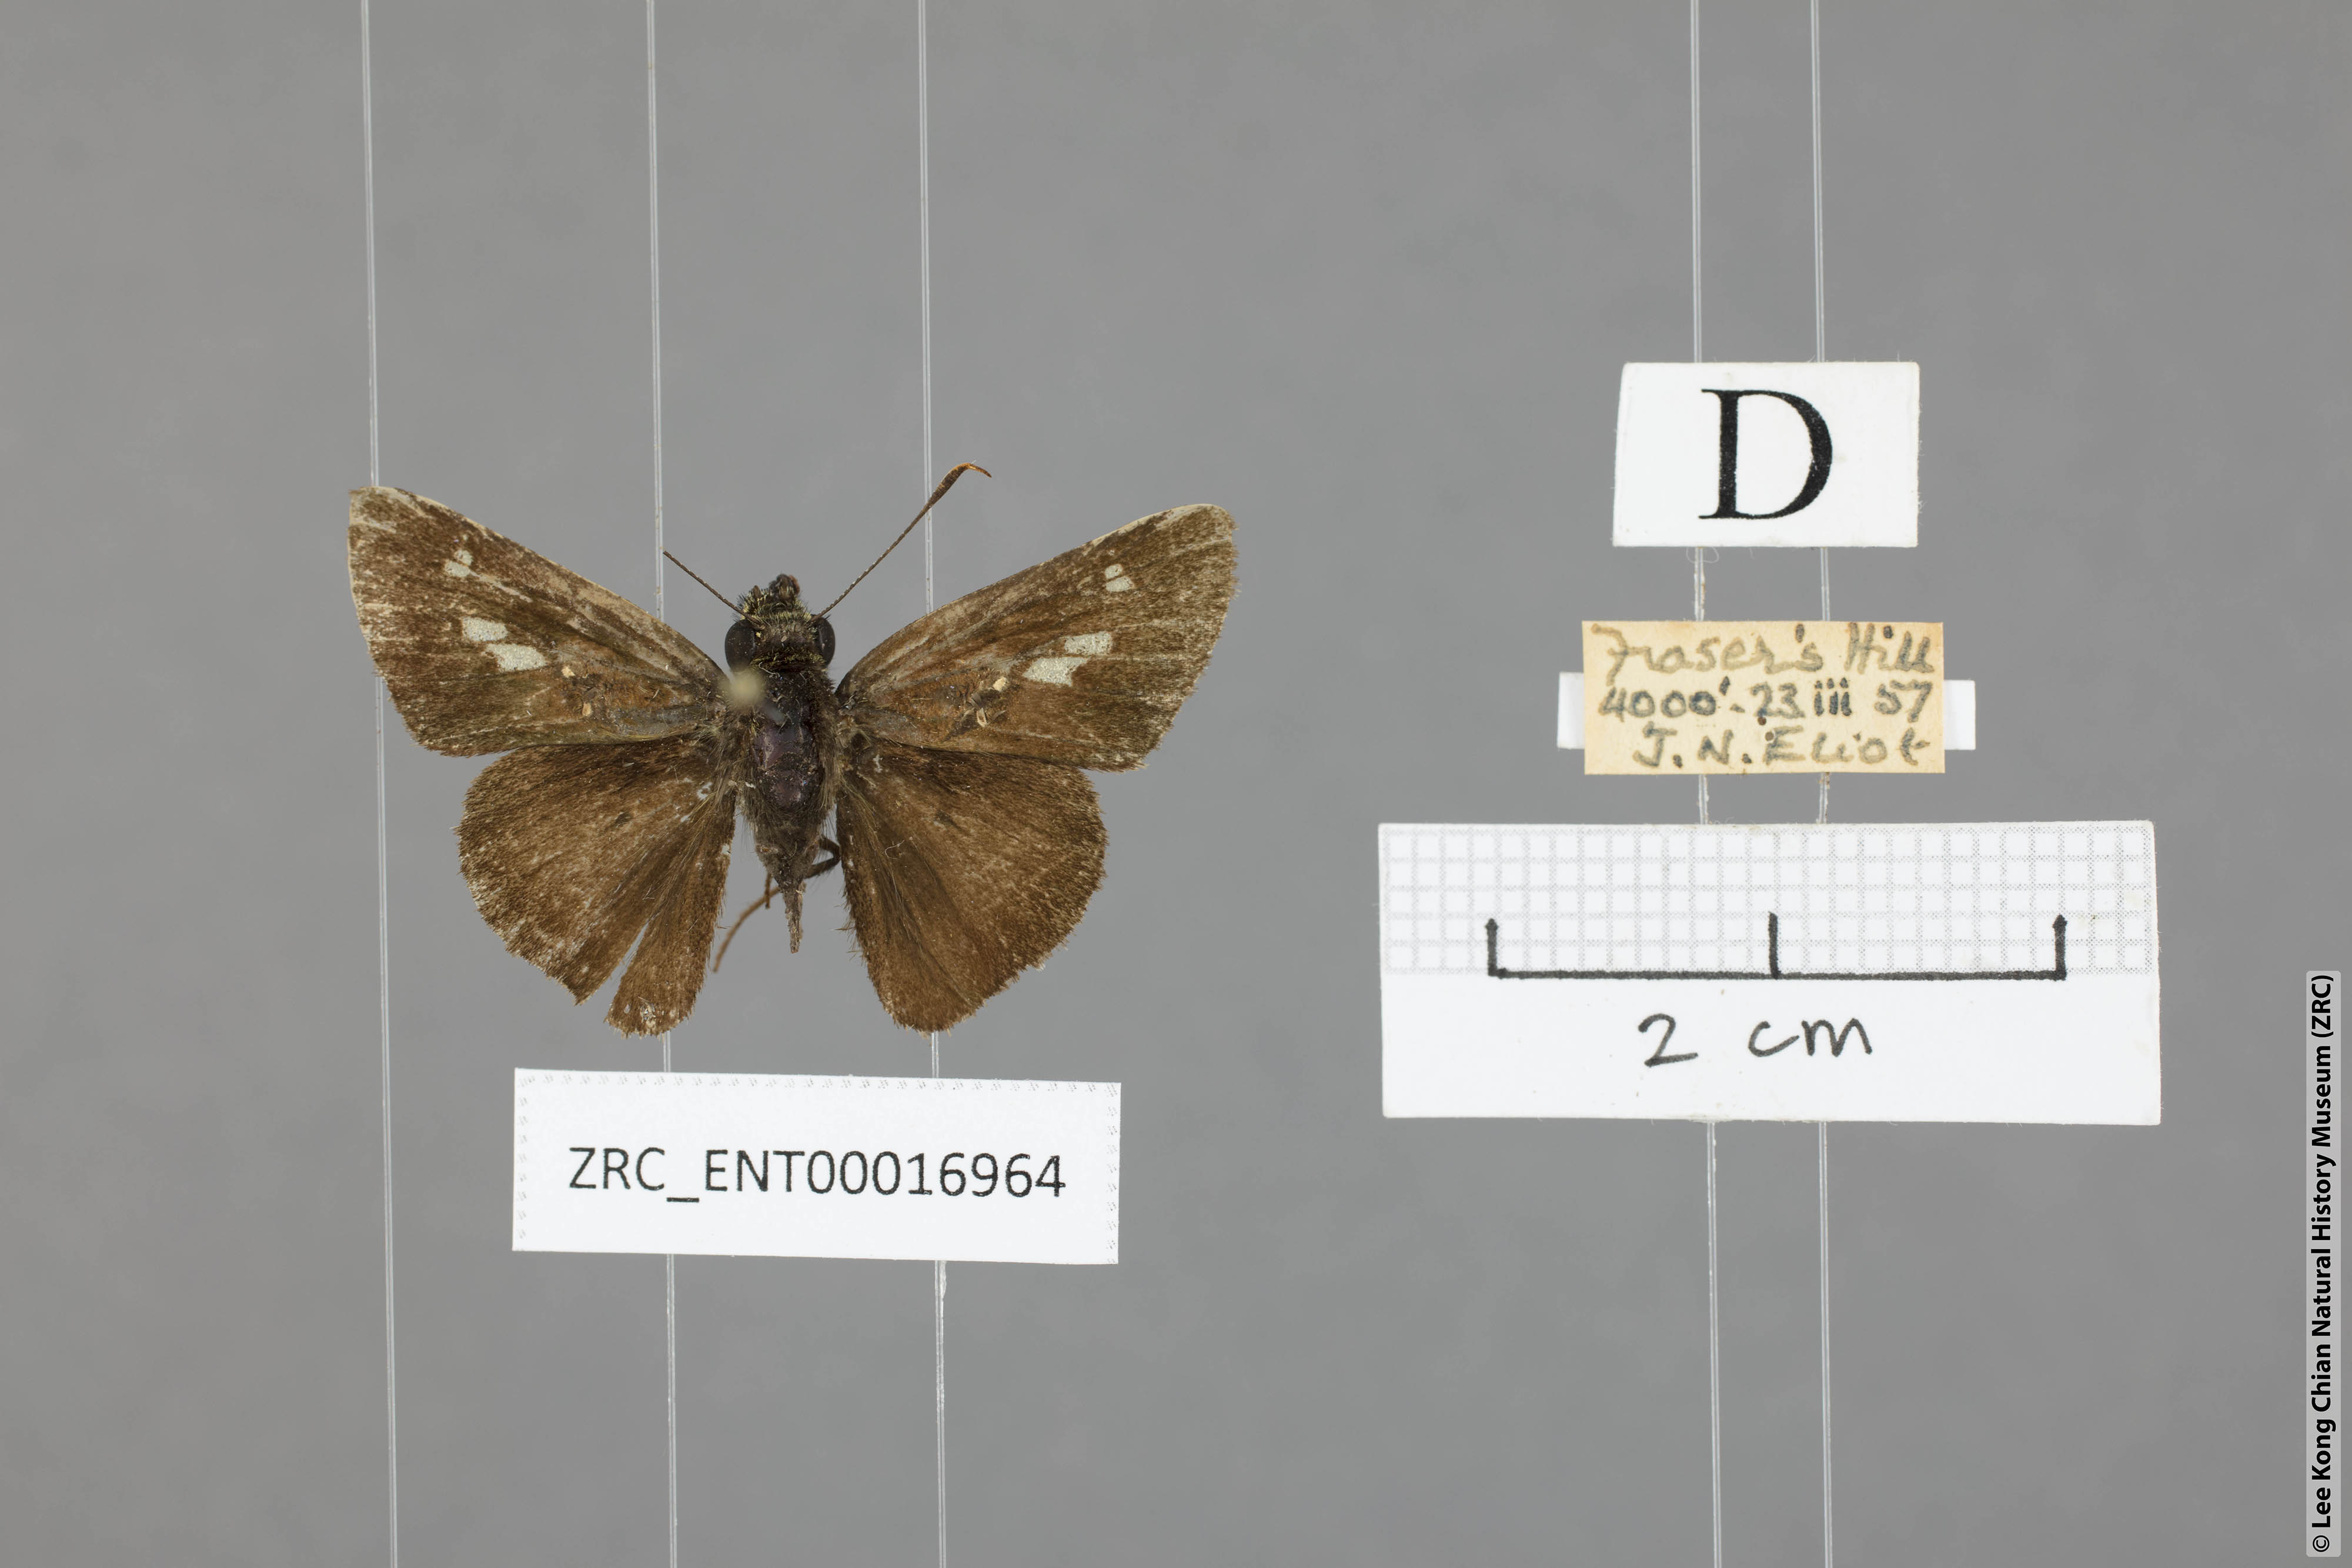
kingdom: Animalia
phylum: Arthropoda
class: Insecta
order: Lepidoptera
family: Hesperiidae
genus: Halpe
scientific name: Halpe arcuata
